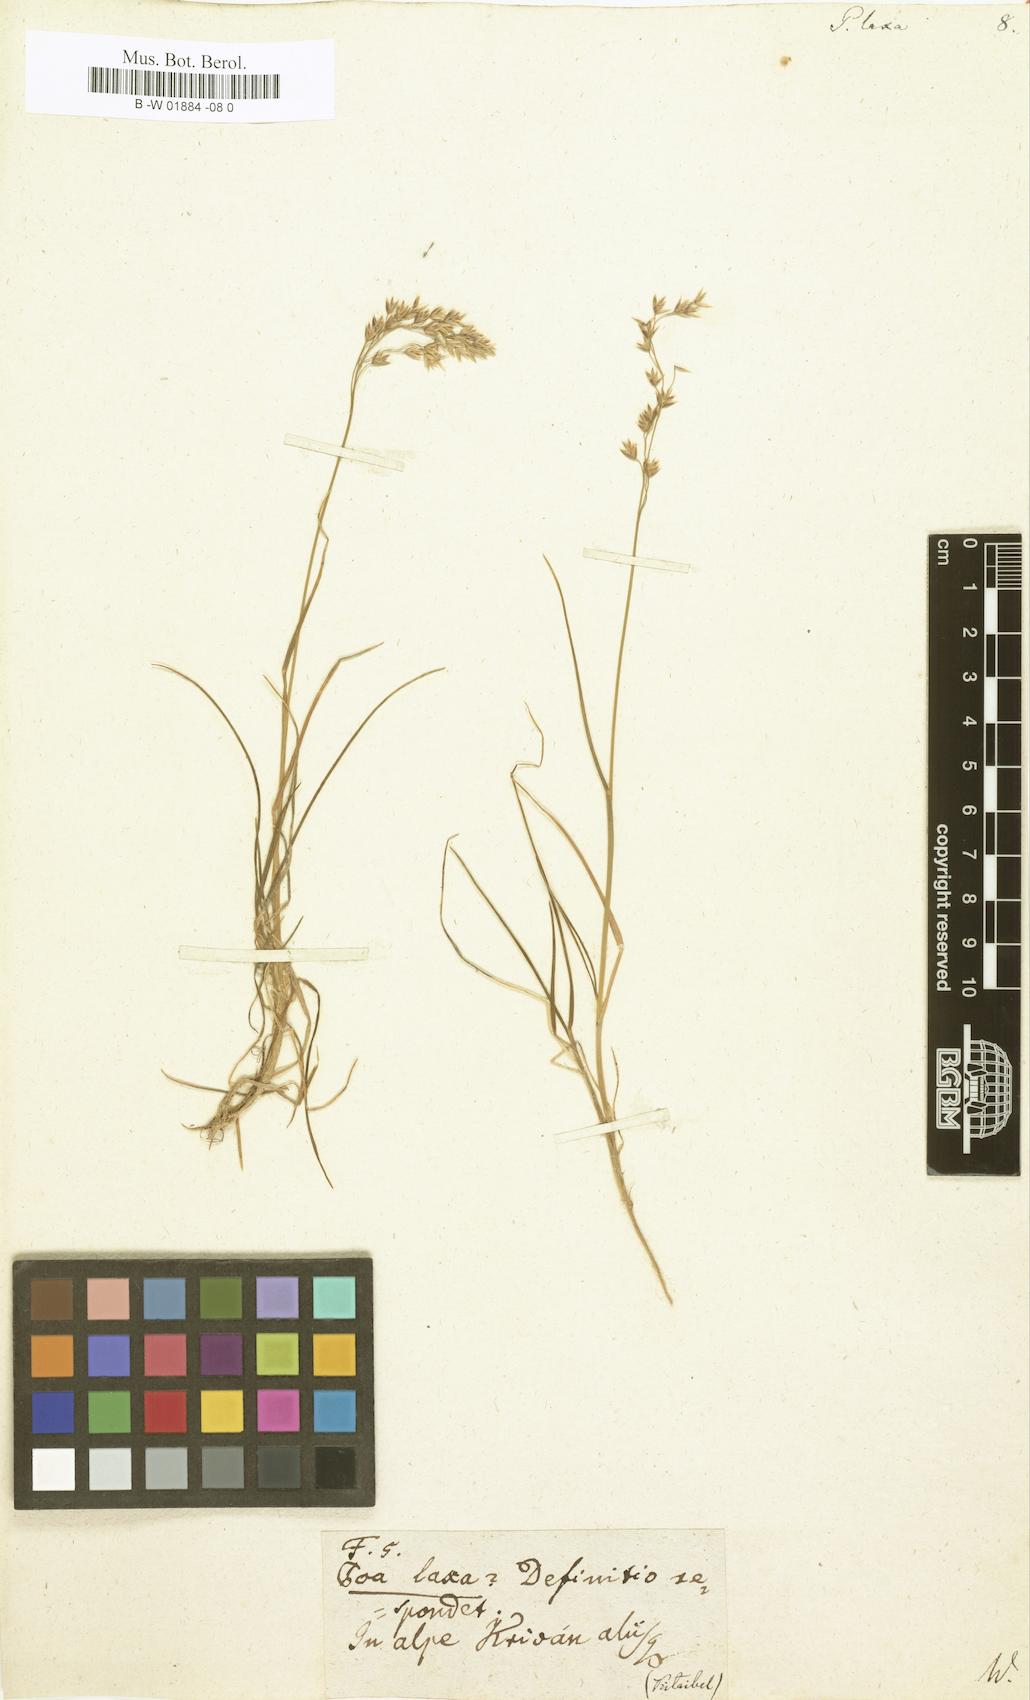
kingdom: Plantae
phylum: Tracheophyta
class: Liliopsida
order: Poales
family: Poaceae
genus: Poa
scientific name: Poa laxa
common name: Lax bluegrass
